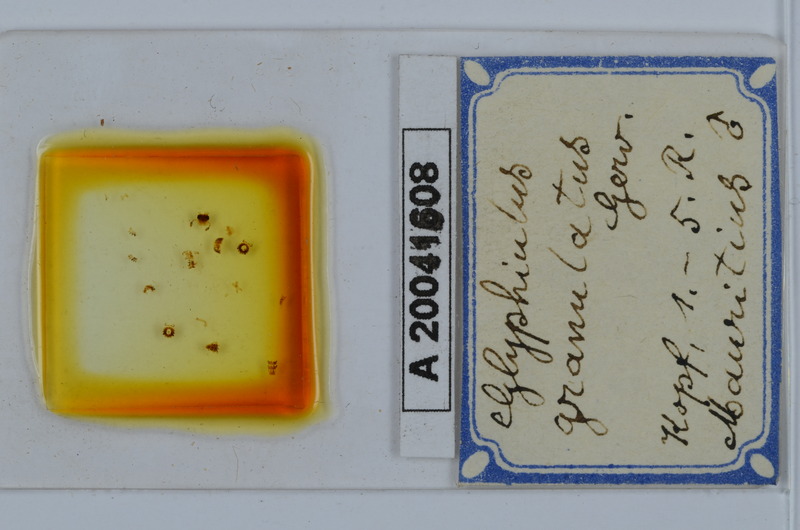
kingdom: Animalia
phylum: Arthropoda
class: Diplopoda
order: Spirostreptida
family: Cambalopsidae
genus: Hypocambala
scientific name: Hypocambala cornuta
